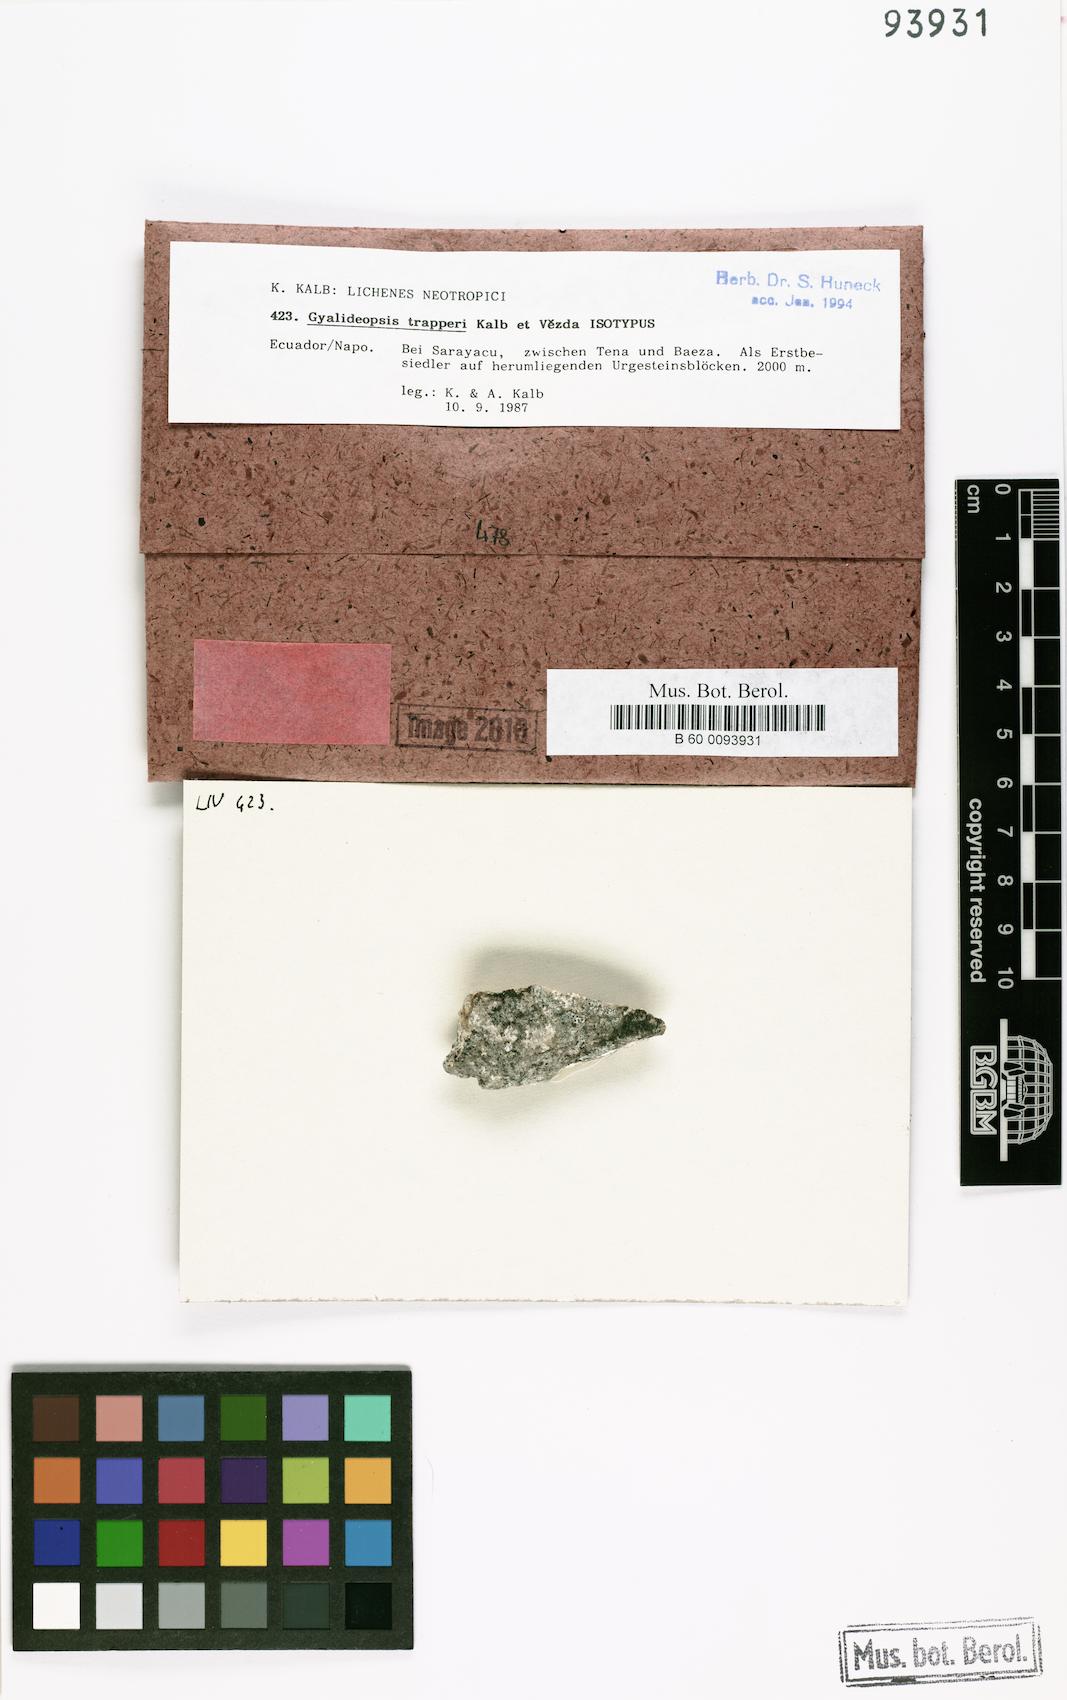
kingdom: Fungi
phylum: Ascomycota
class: Lecanoromycetes
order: Ostropales
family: Gomphillaceae
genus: Diploschistella
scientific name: Diploschistella trapperi
